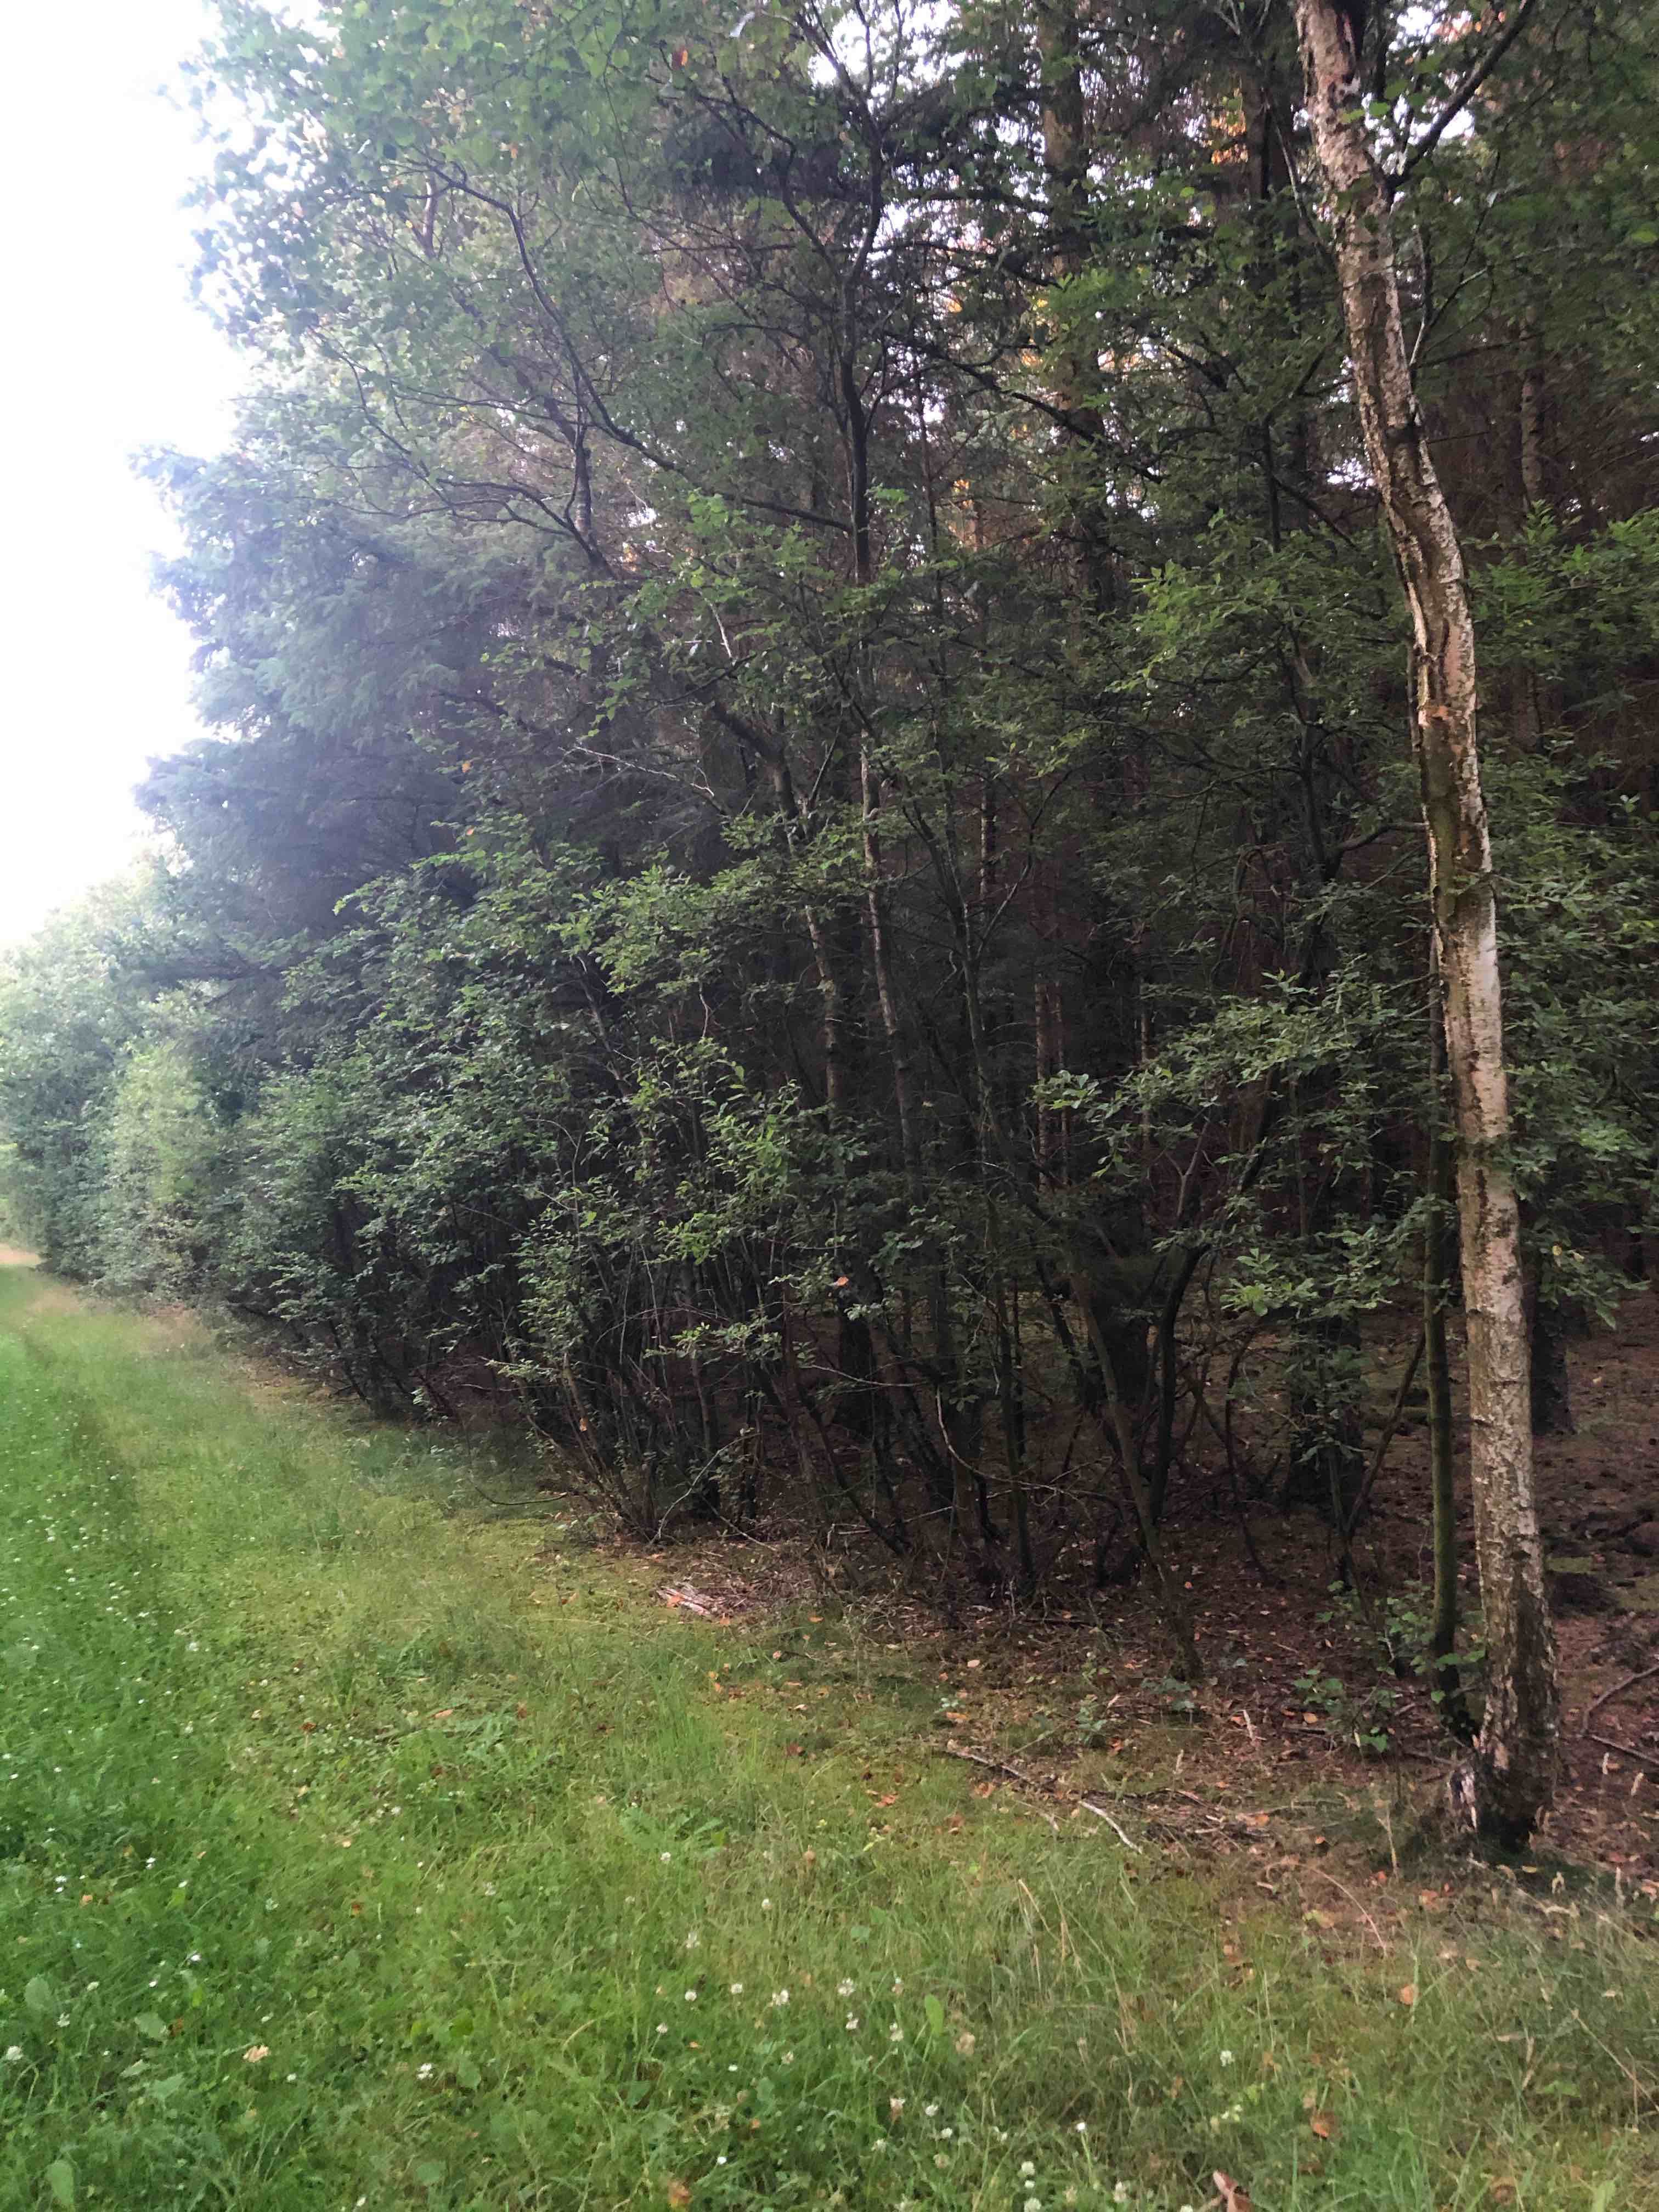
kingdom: Fungi
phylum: Basidiomycota
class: Agaricomycetes
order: Boletales
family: Boletaceae
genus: Leccinum
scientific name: Leccinum scabrum
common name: brun skælrørhat
